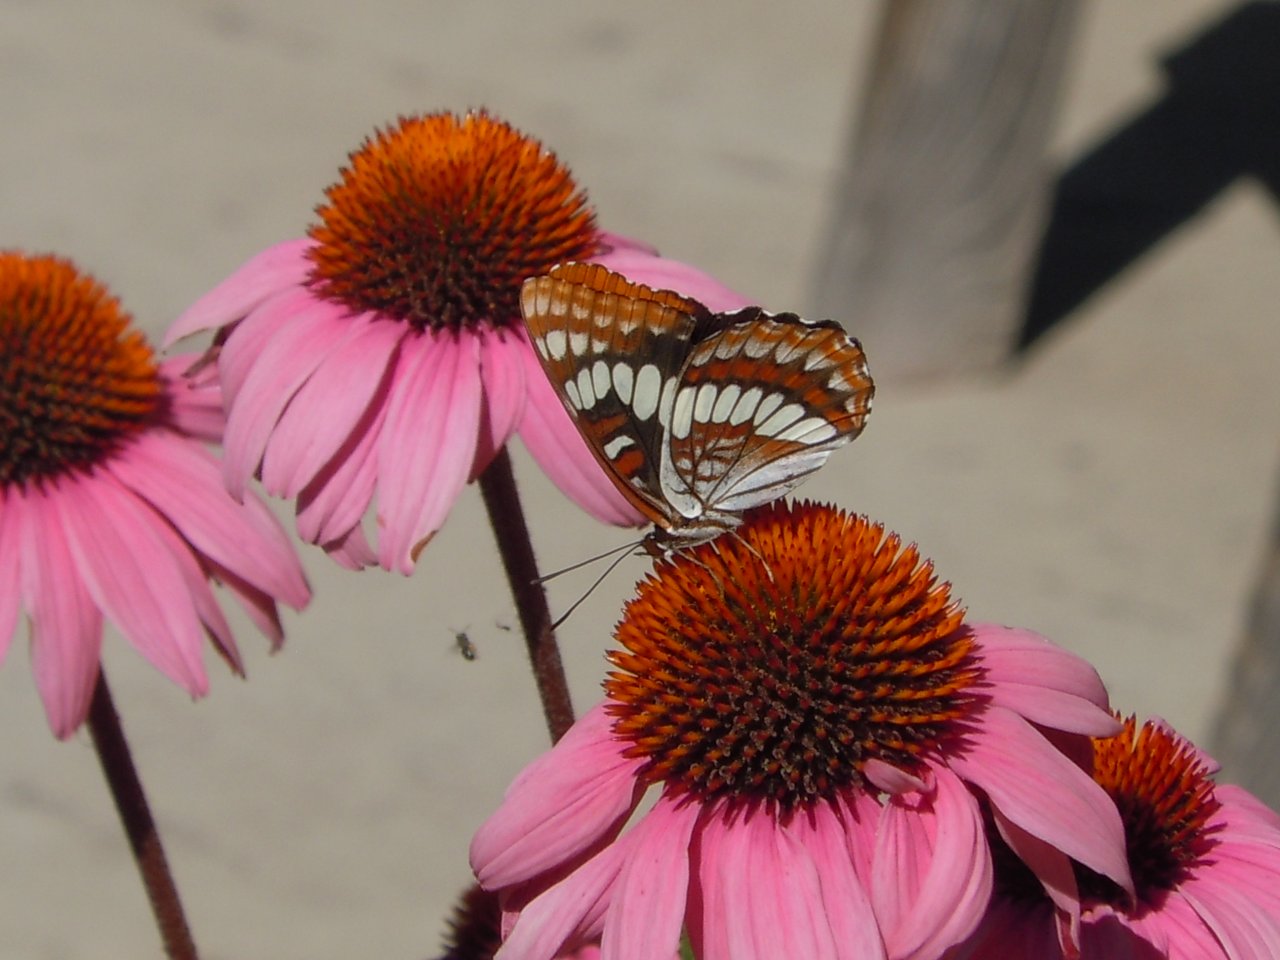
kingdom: Animalia
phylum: Arthropoda
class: Insecta
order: Lepidoptera
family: Nymphalidae
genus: Limenitis
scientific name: Limenitis lorquini
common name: Lorquin's Admiral
